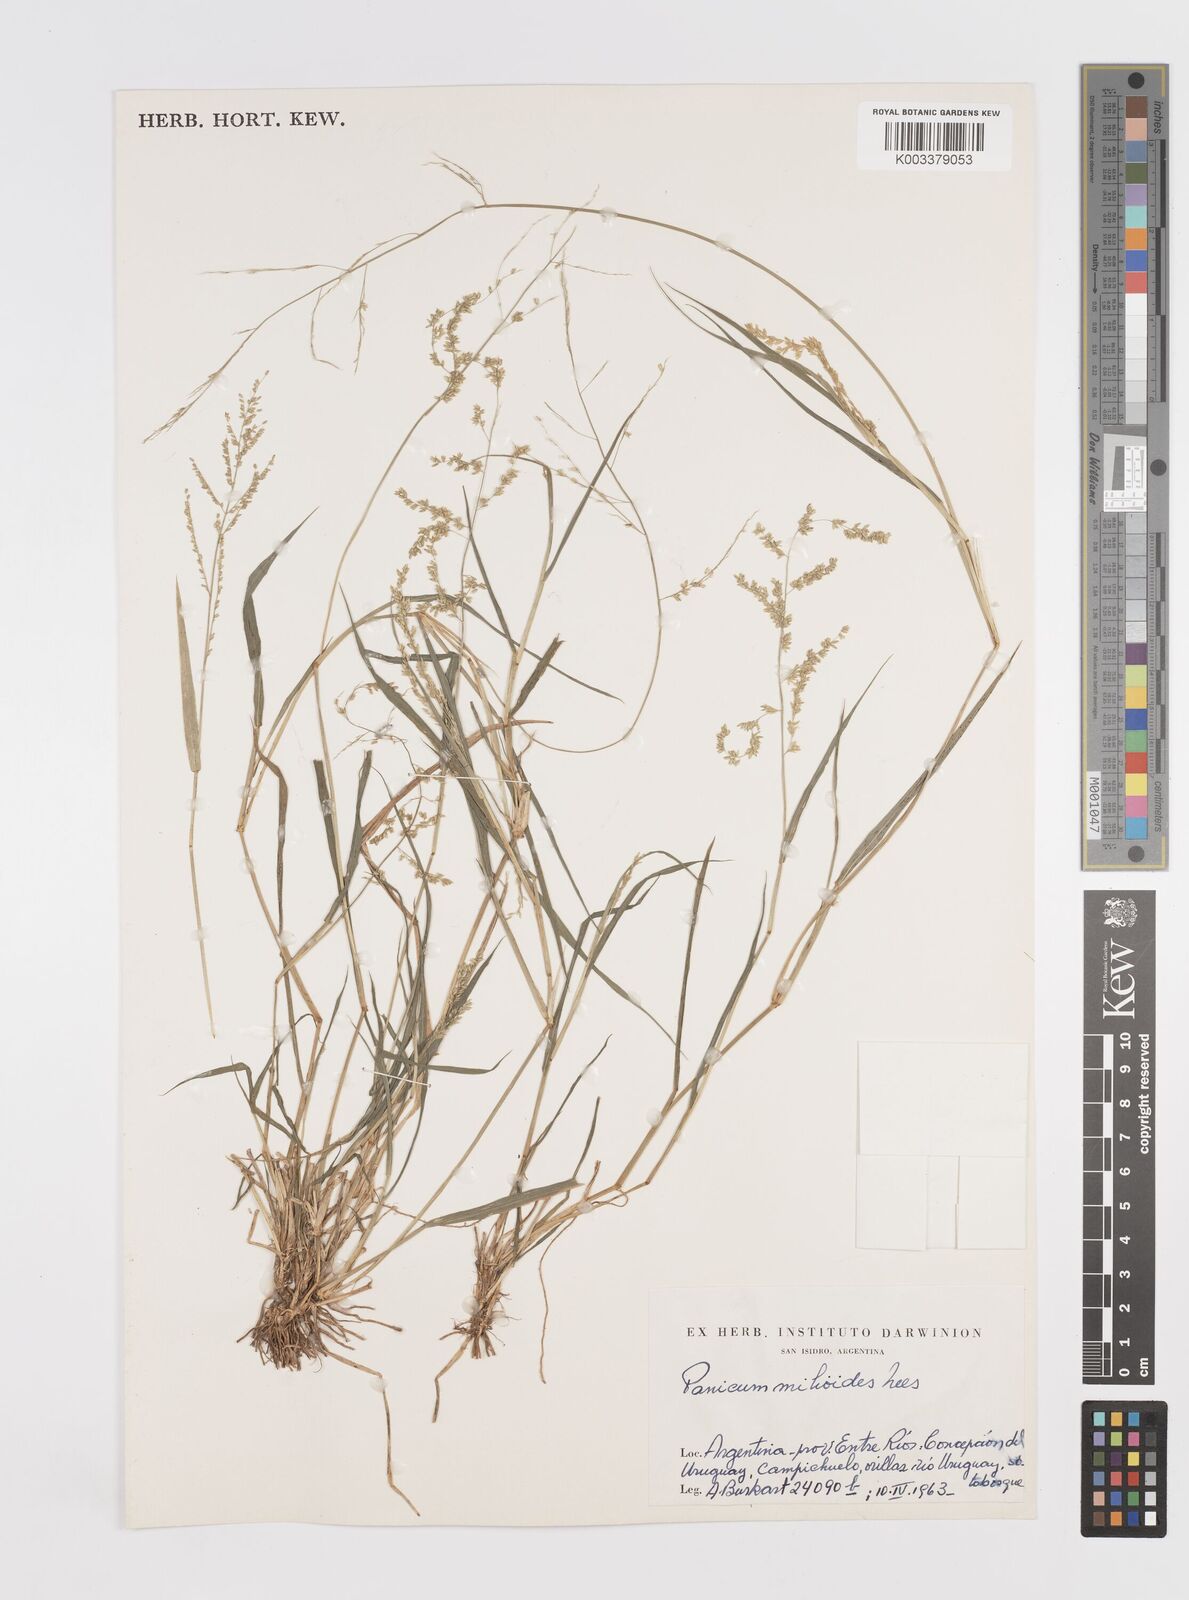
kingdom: Plantae
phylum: Tracheophyta
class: Liliopsida
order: Poales
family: Poaceae
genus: Steinchisma
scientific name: Steinchisma hians
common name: Gaping panic grass
